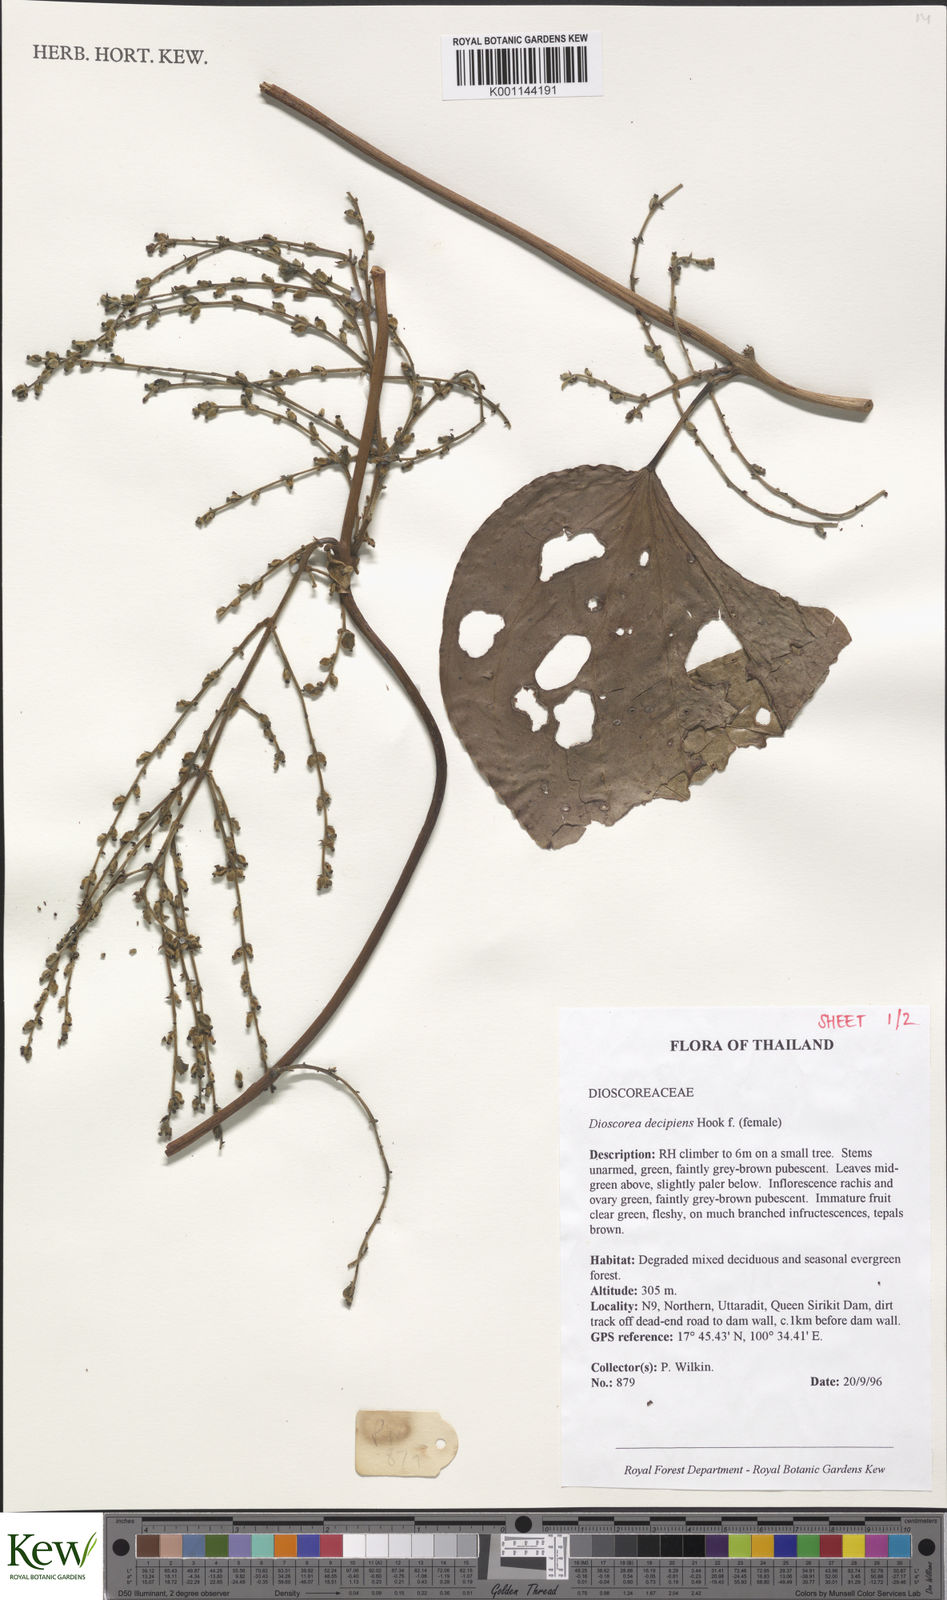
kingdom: Plantae
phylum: Tracheophyta
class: Liliopsida
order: Dioscoreales
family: Dioscoreaceae
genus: Dioscorea
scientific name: Dioscorea decipiens
